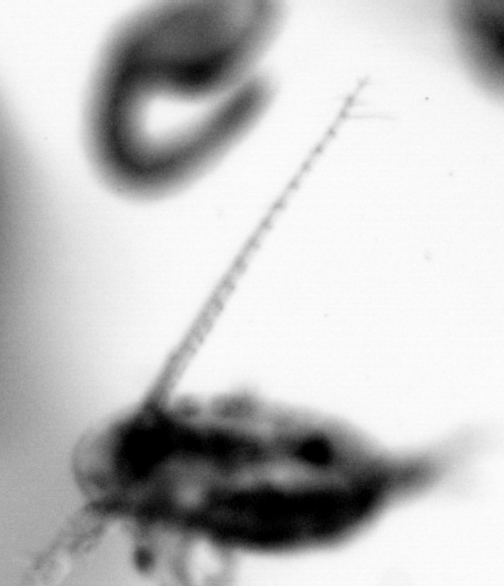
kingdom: Animalia
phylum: Arthropoda
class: Copepoda
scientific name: Copepoda
